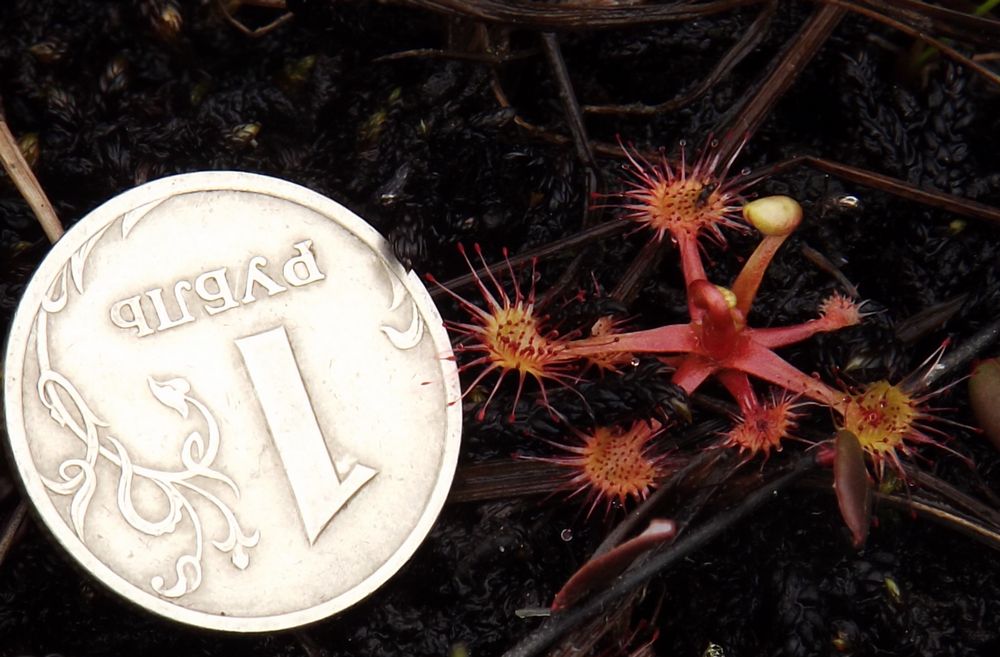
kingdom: Plantae
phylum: Tracheophyta
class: Magnoliopsida
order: Caryophyllales
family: Droseraceae
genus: Drosera
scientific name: Drosera
